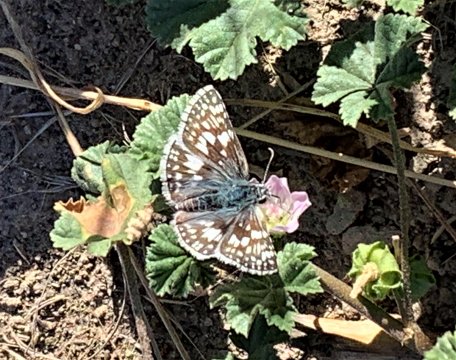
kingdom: Animalia
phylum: Arthropoda
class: Insecta
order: Lepidoptera
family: Hesperiidae
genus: Pyrgus
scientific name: Pyrgus communis
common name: Common Checkered-Skipper
